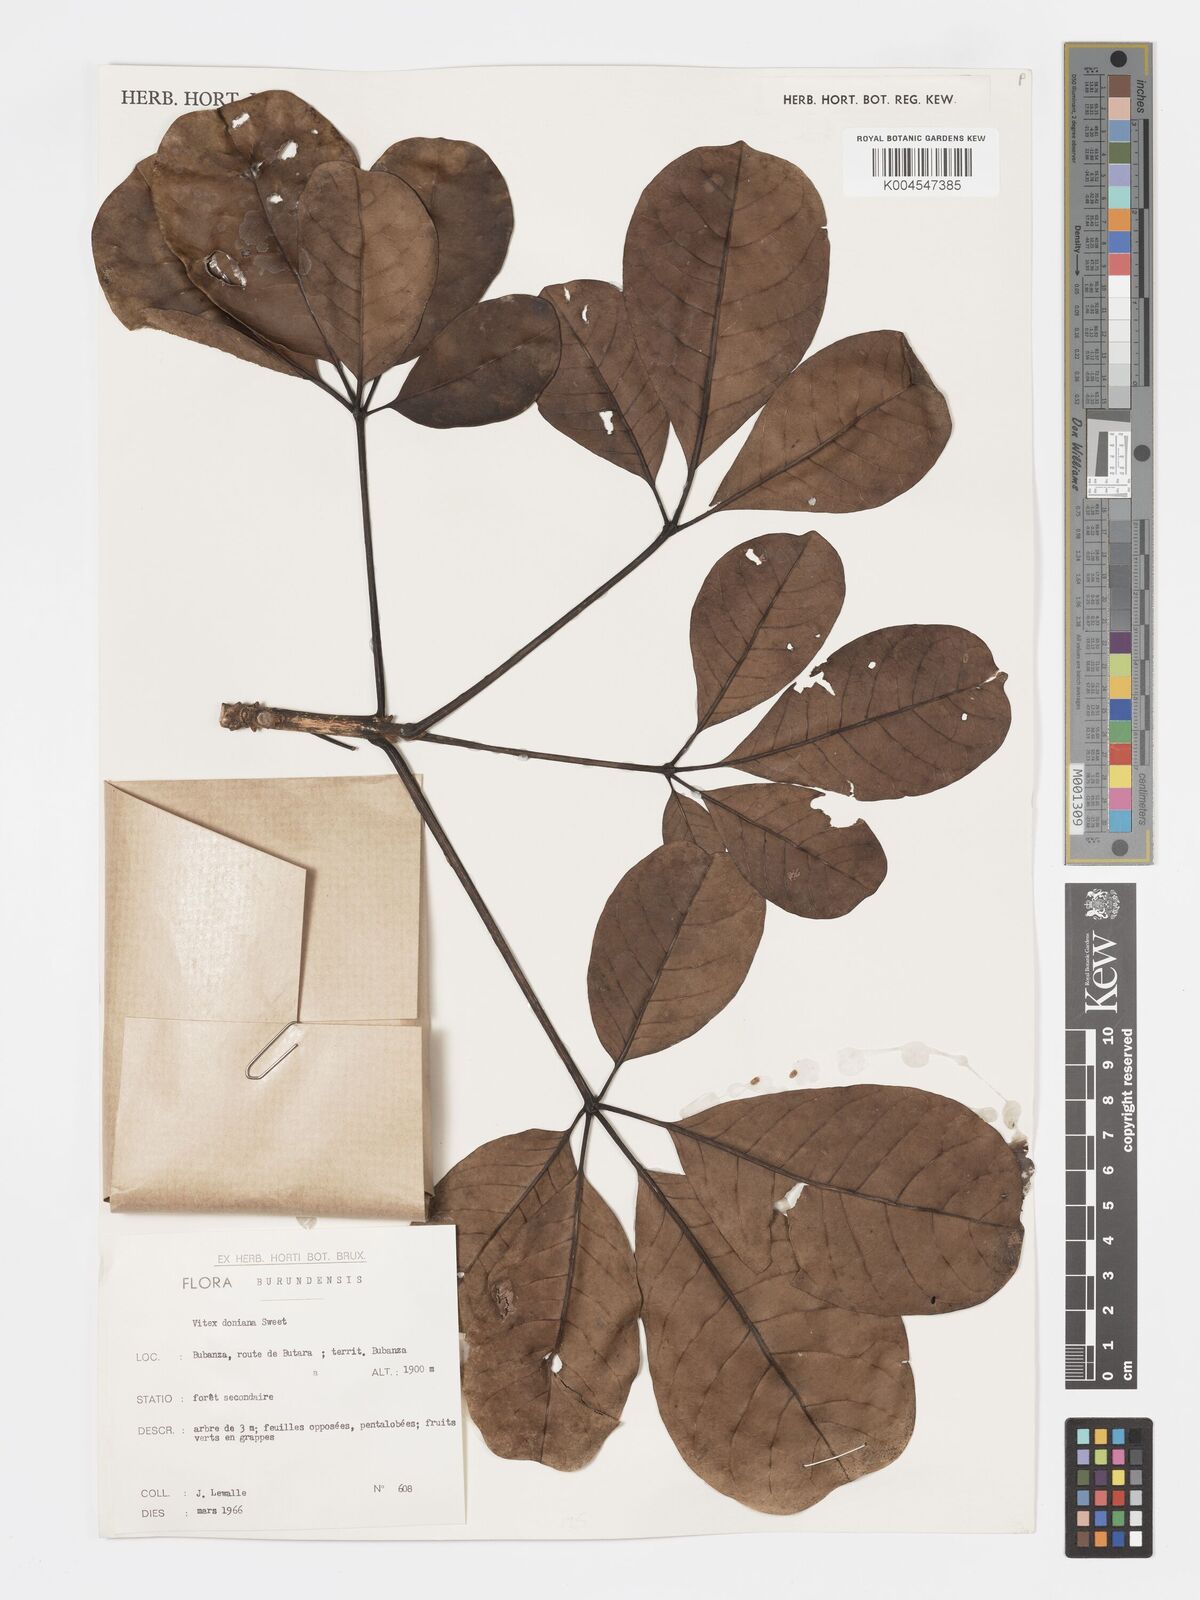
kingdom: Plantae
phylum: Tracheophyta
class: Magnoliopsida
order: Lamiales
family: Lamiaceae
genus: Vitex
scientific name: Vitex doniana
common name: Black plum
